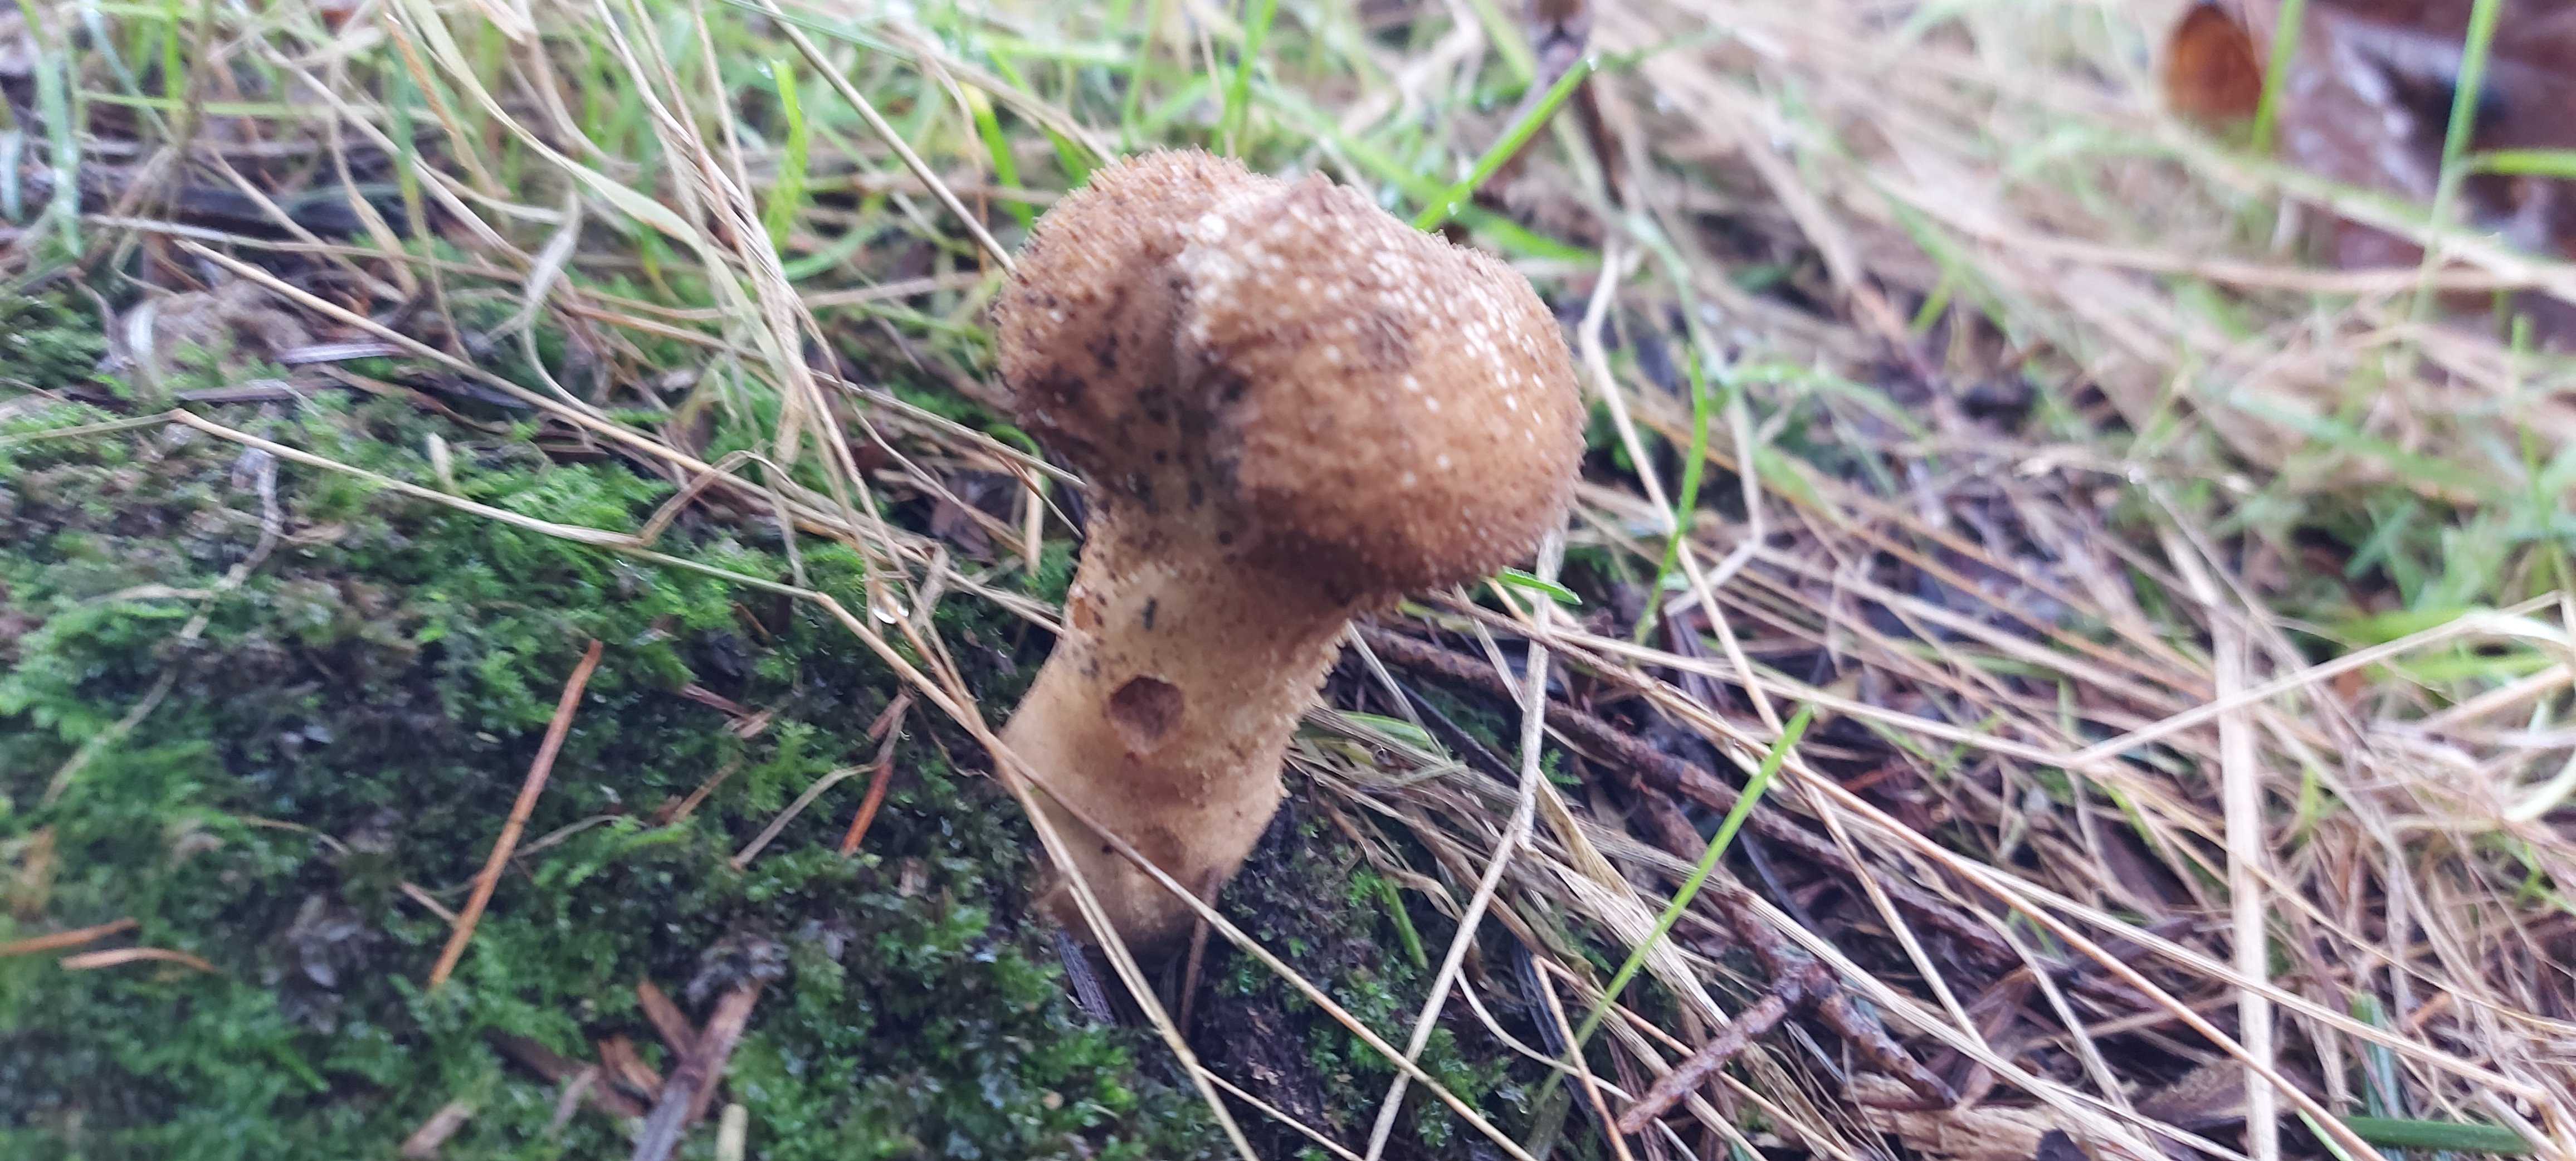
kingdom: Fungi
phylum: Basidiomycota
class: Agaricomycetes
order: Agaricales
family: Agaricaceae
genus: Lycoperdon
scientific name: Lycoperdon
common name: støvbold
